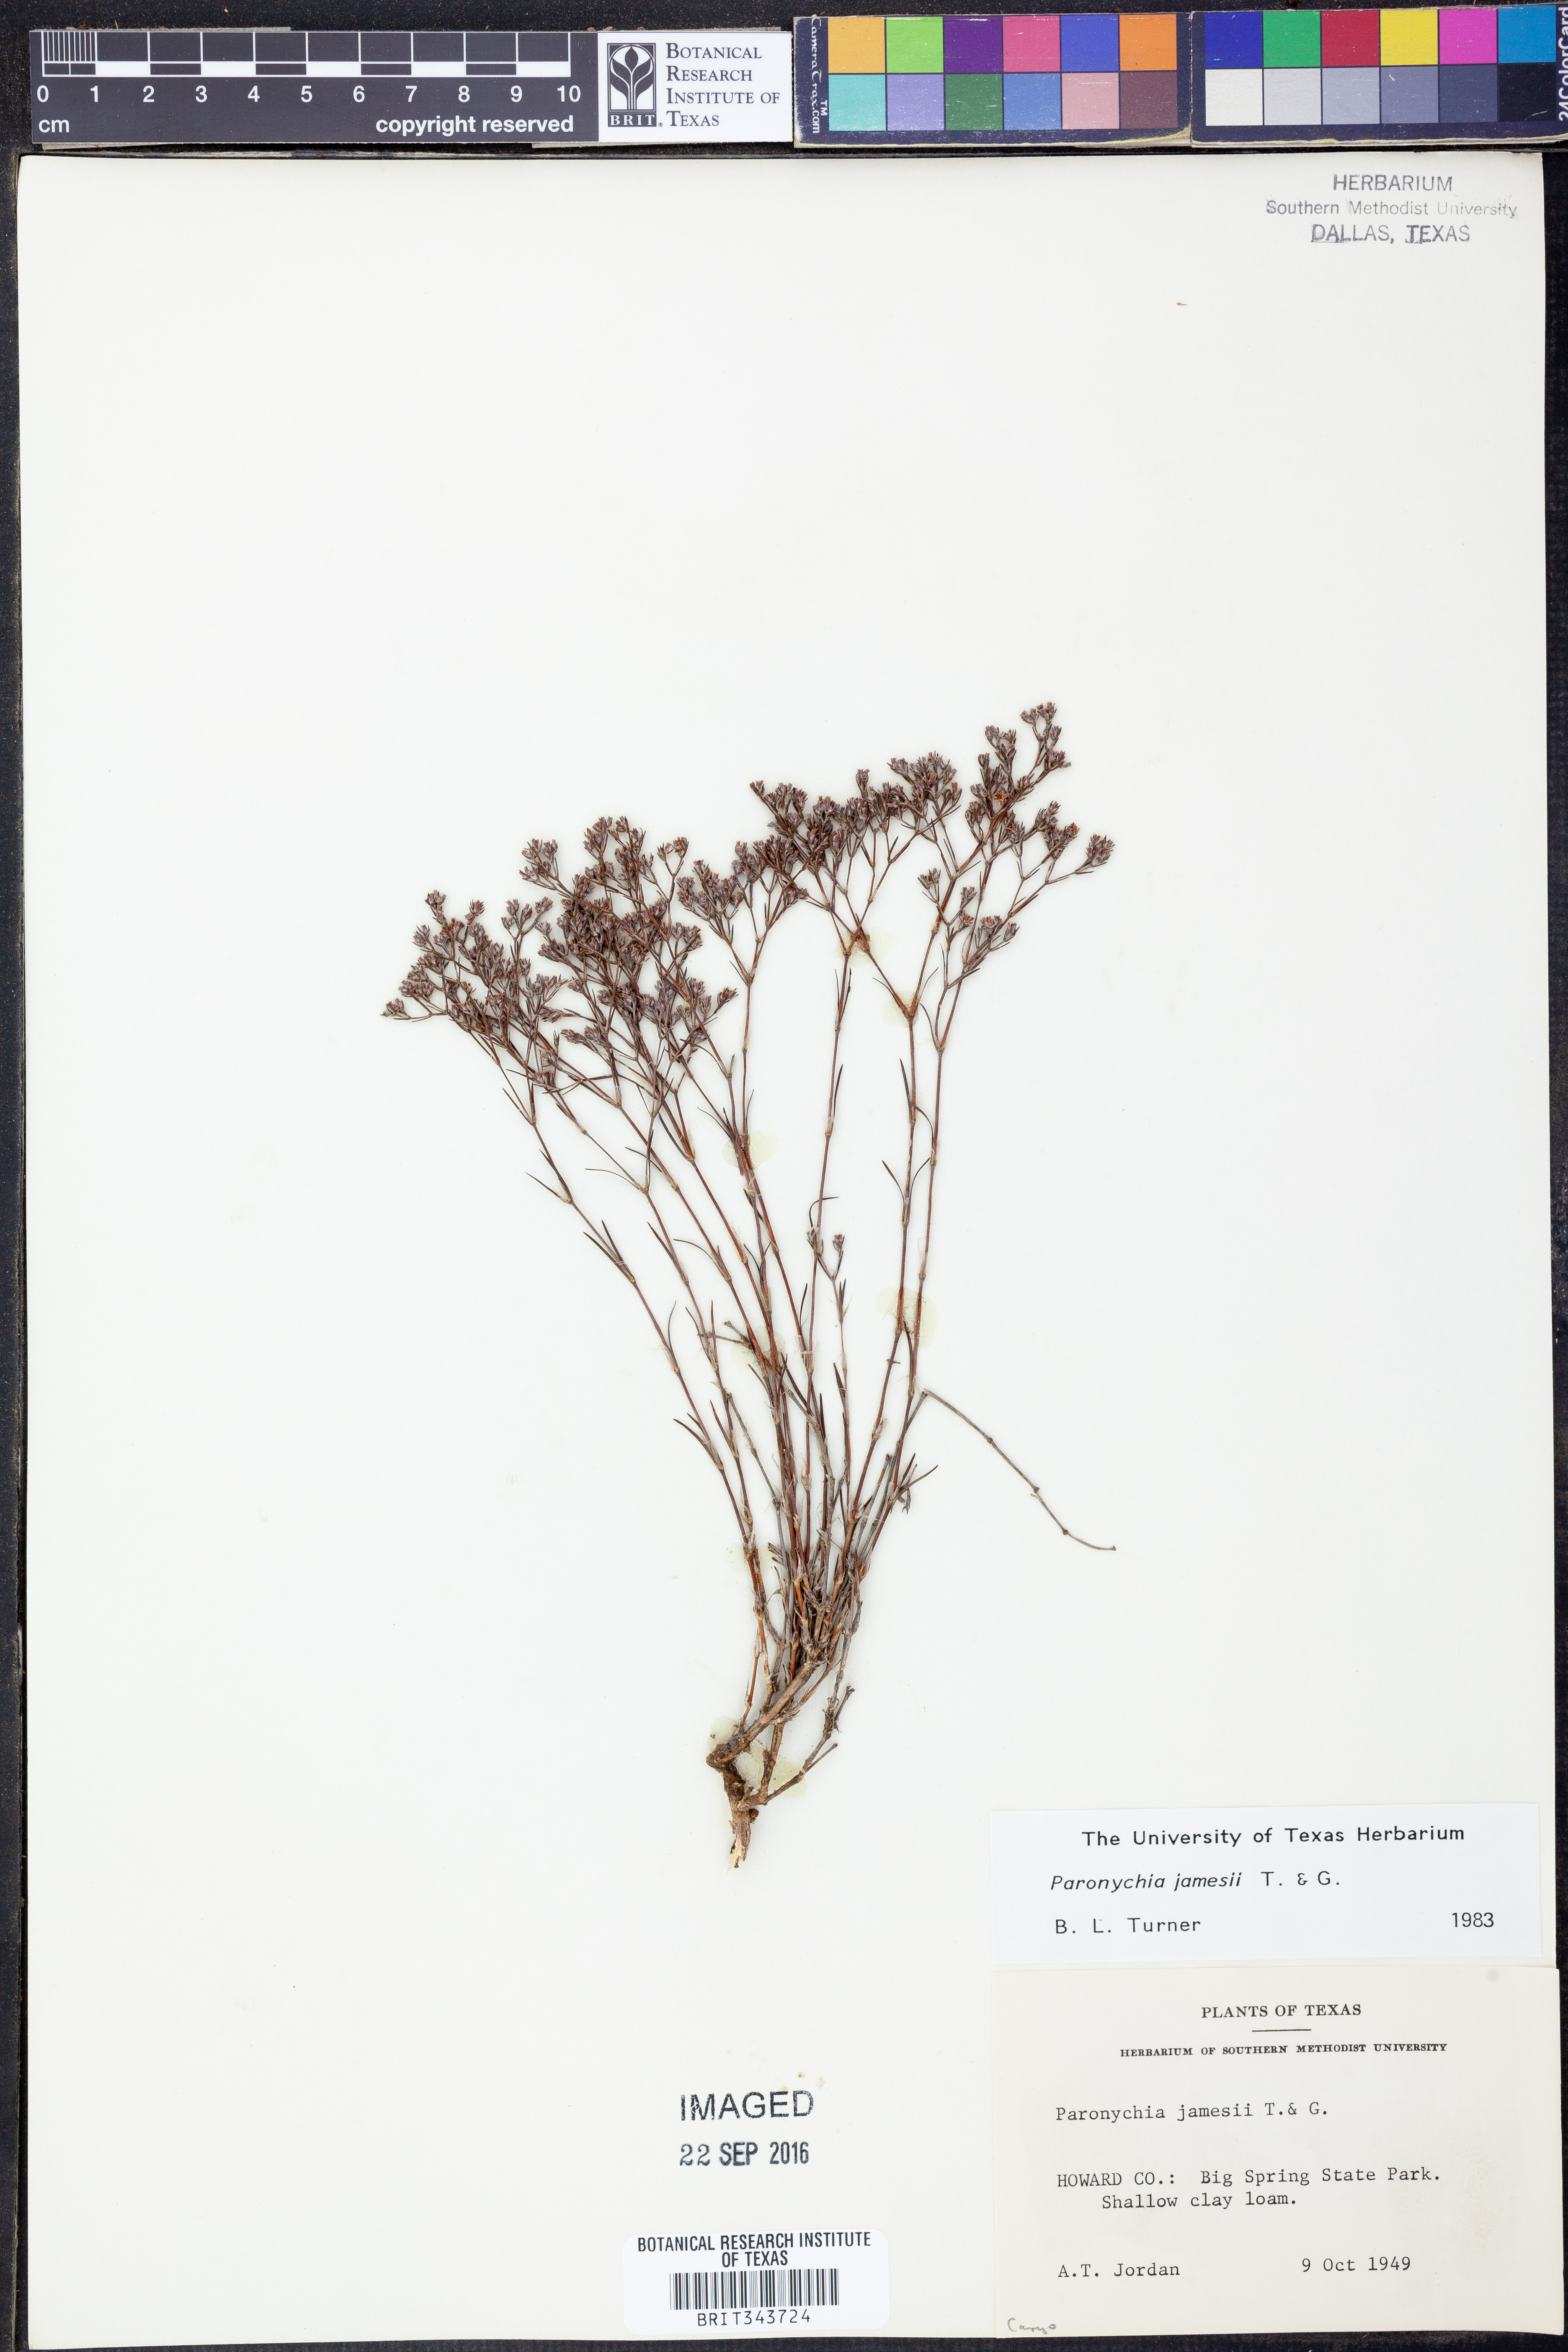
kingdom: Plantae
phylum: Tracheophyta
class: Magnoliopsida
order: Caryophyllales
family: Caryophyllaceae
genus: Paronychia
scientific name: Paronychia jamesii
